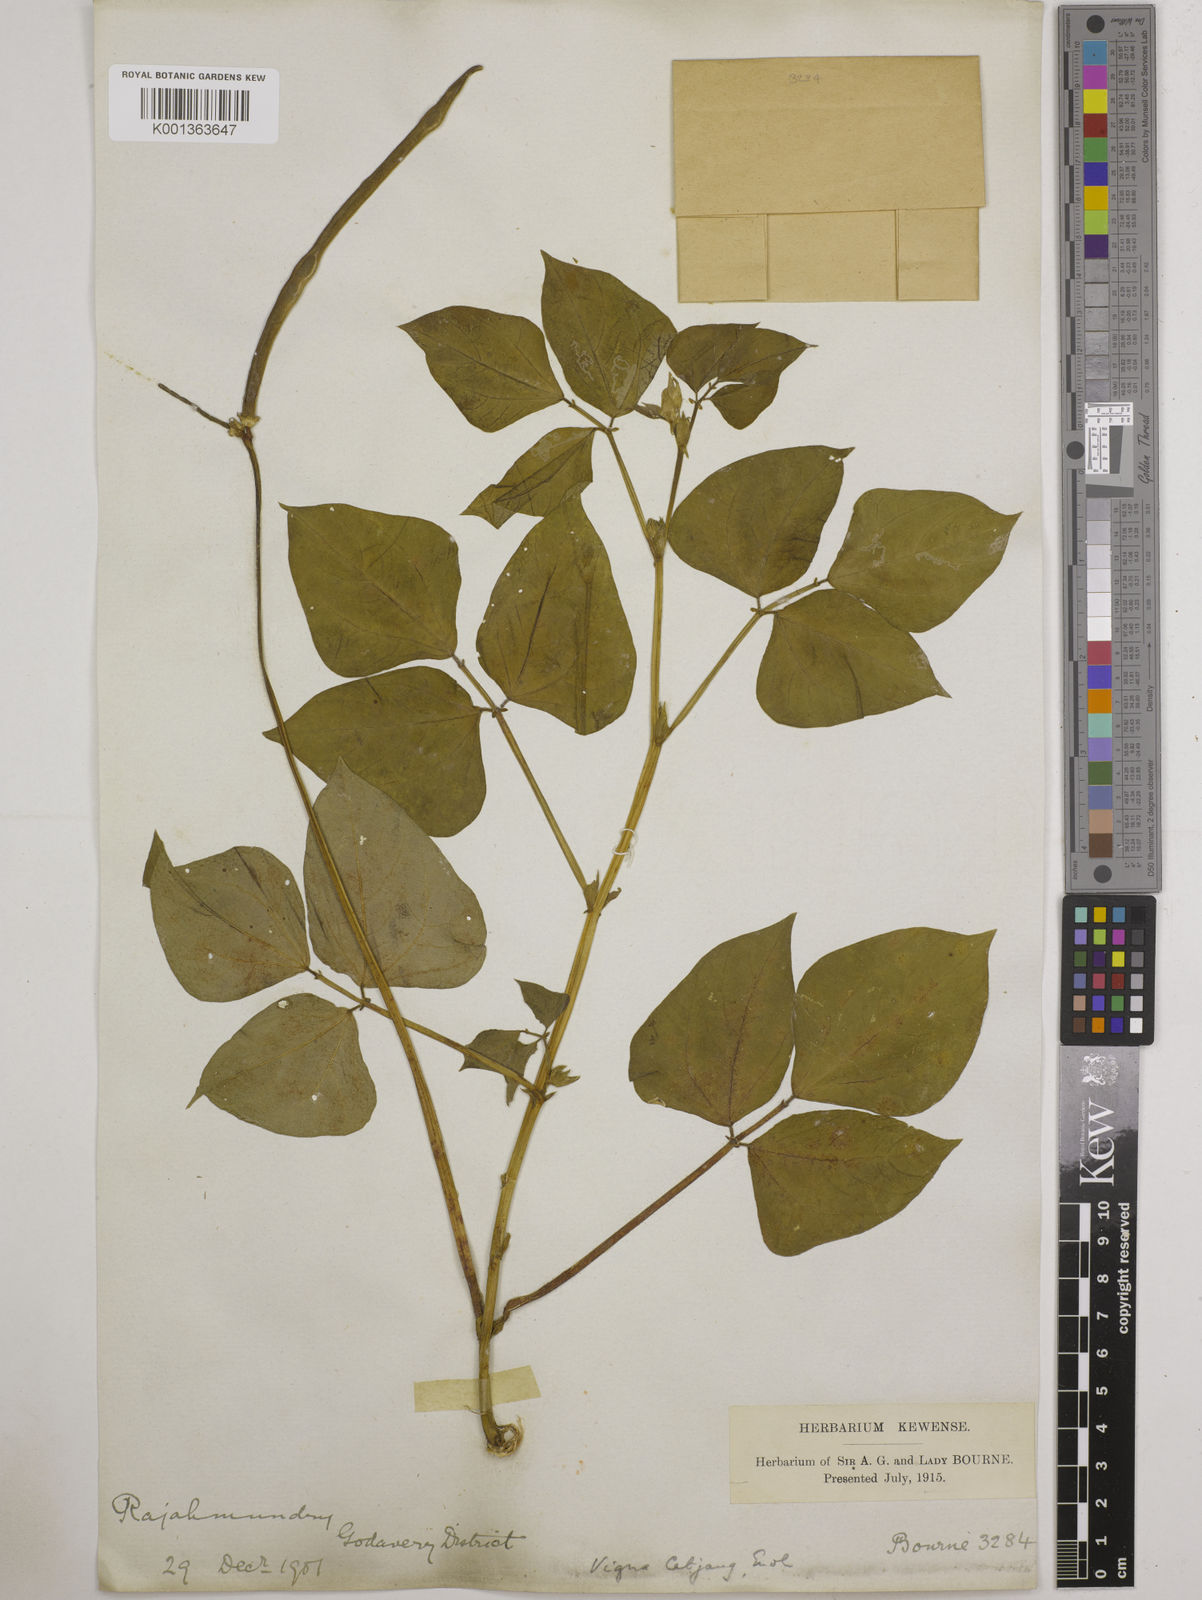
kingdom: Plantae
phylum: Tracheophyta
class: Magnoliopsida
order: Fabales
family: Fabaceae
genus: Vigna
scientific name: Vigna unguiculata
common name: Cowpea
